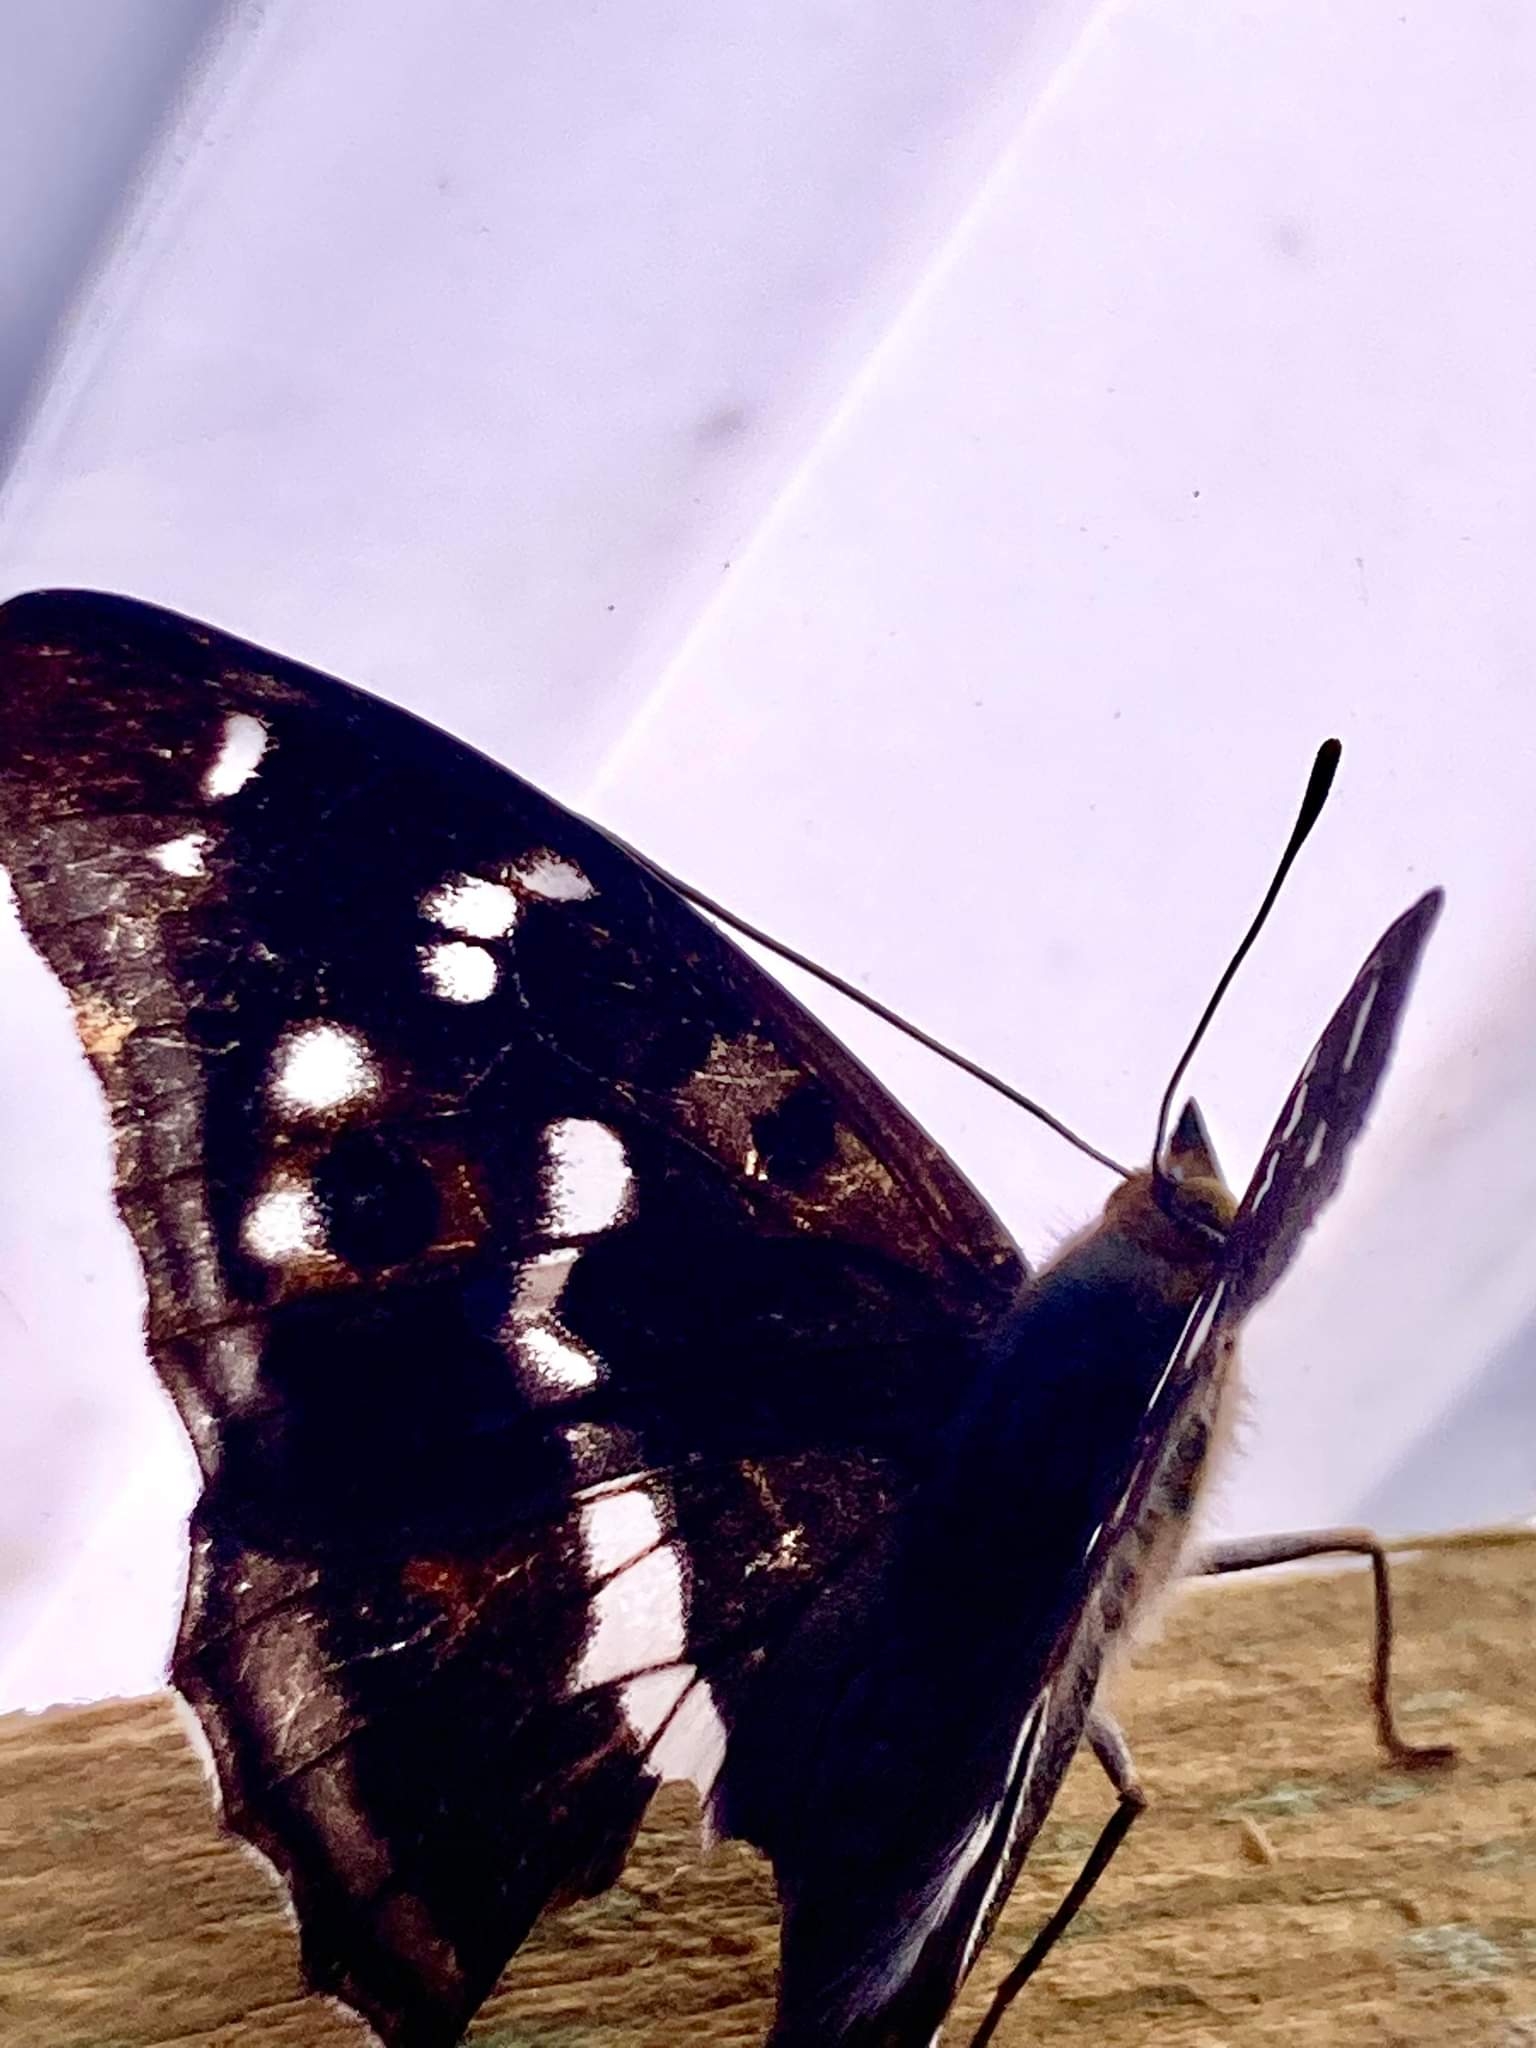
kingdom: Animalia
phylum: Arthropoda
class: Insecta
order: Lepidoptera
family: Nymphalidae
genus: Apatura
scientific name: Apatura iris
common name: Iris
